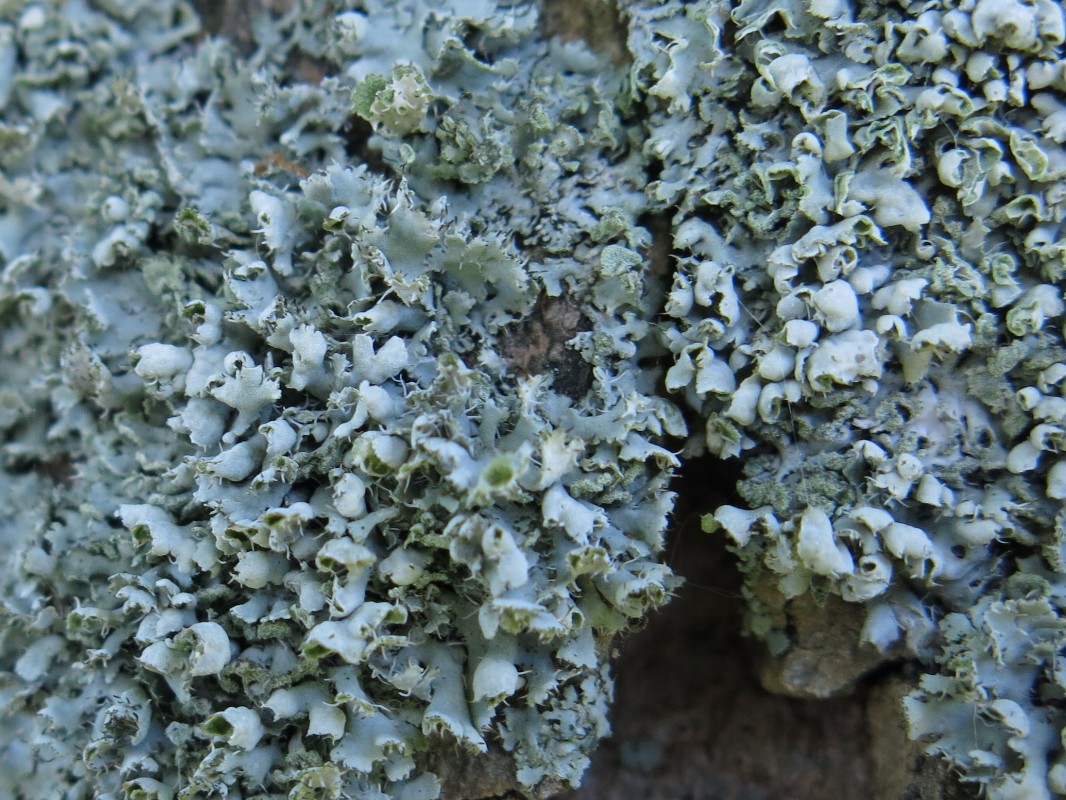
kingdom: Fungi
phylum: Ascomycota
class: Lecanoromycetes
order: Caliciales
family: Physciaceae
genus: Physcia
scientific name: Physcia adscendens
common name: hætte-rosetlav
